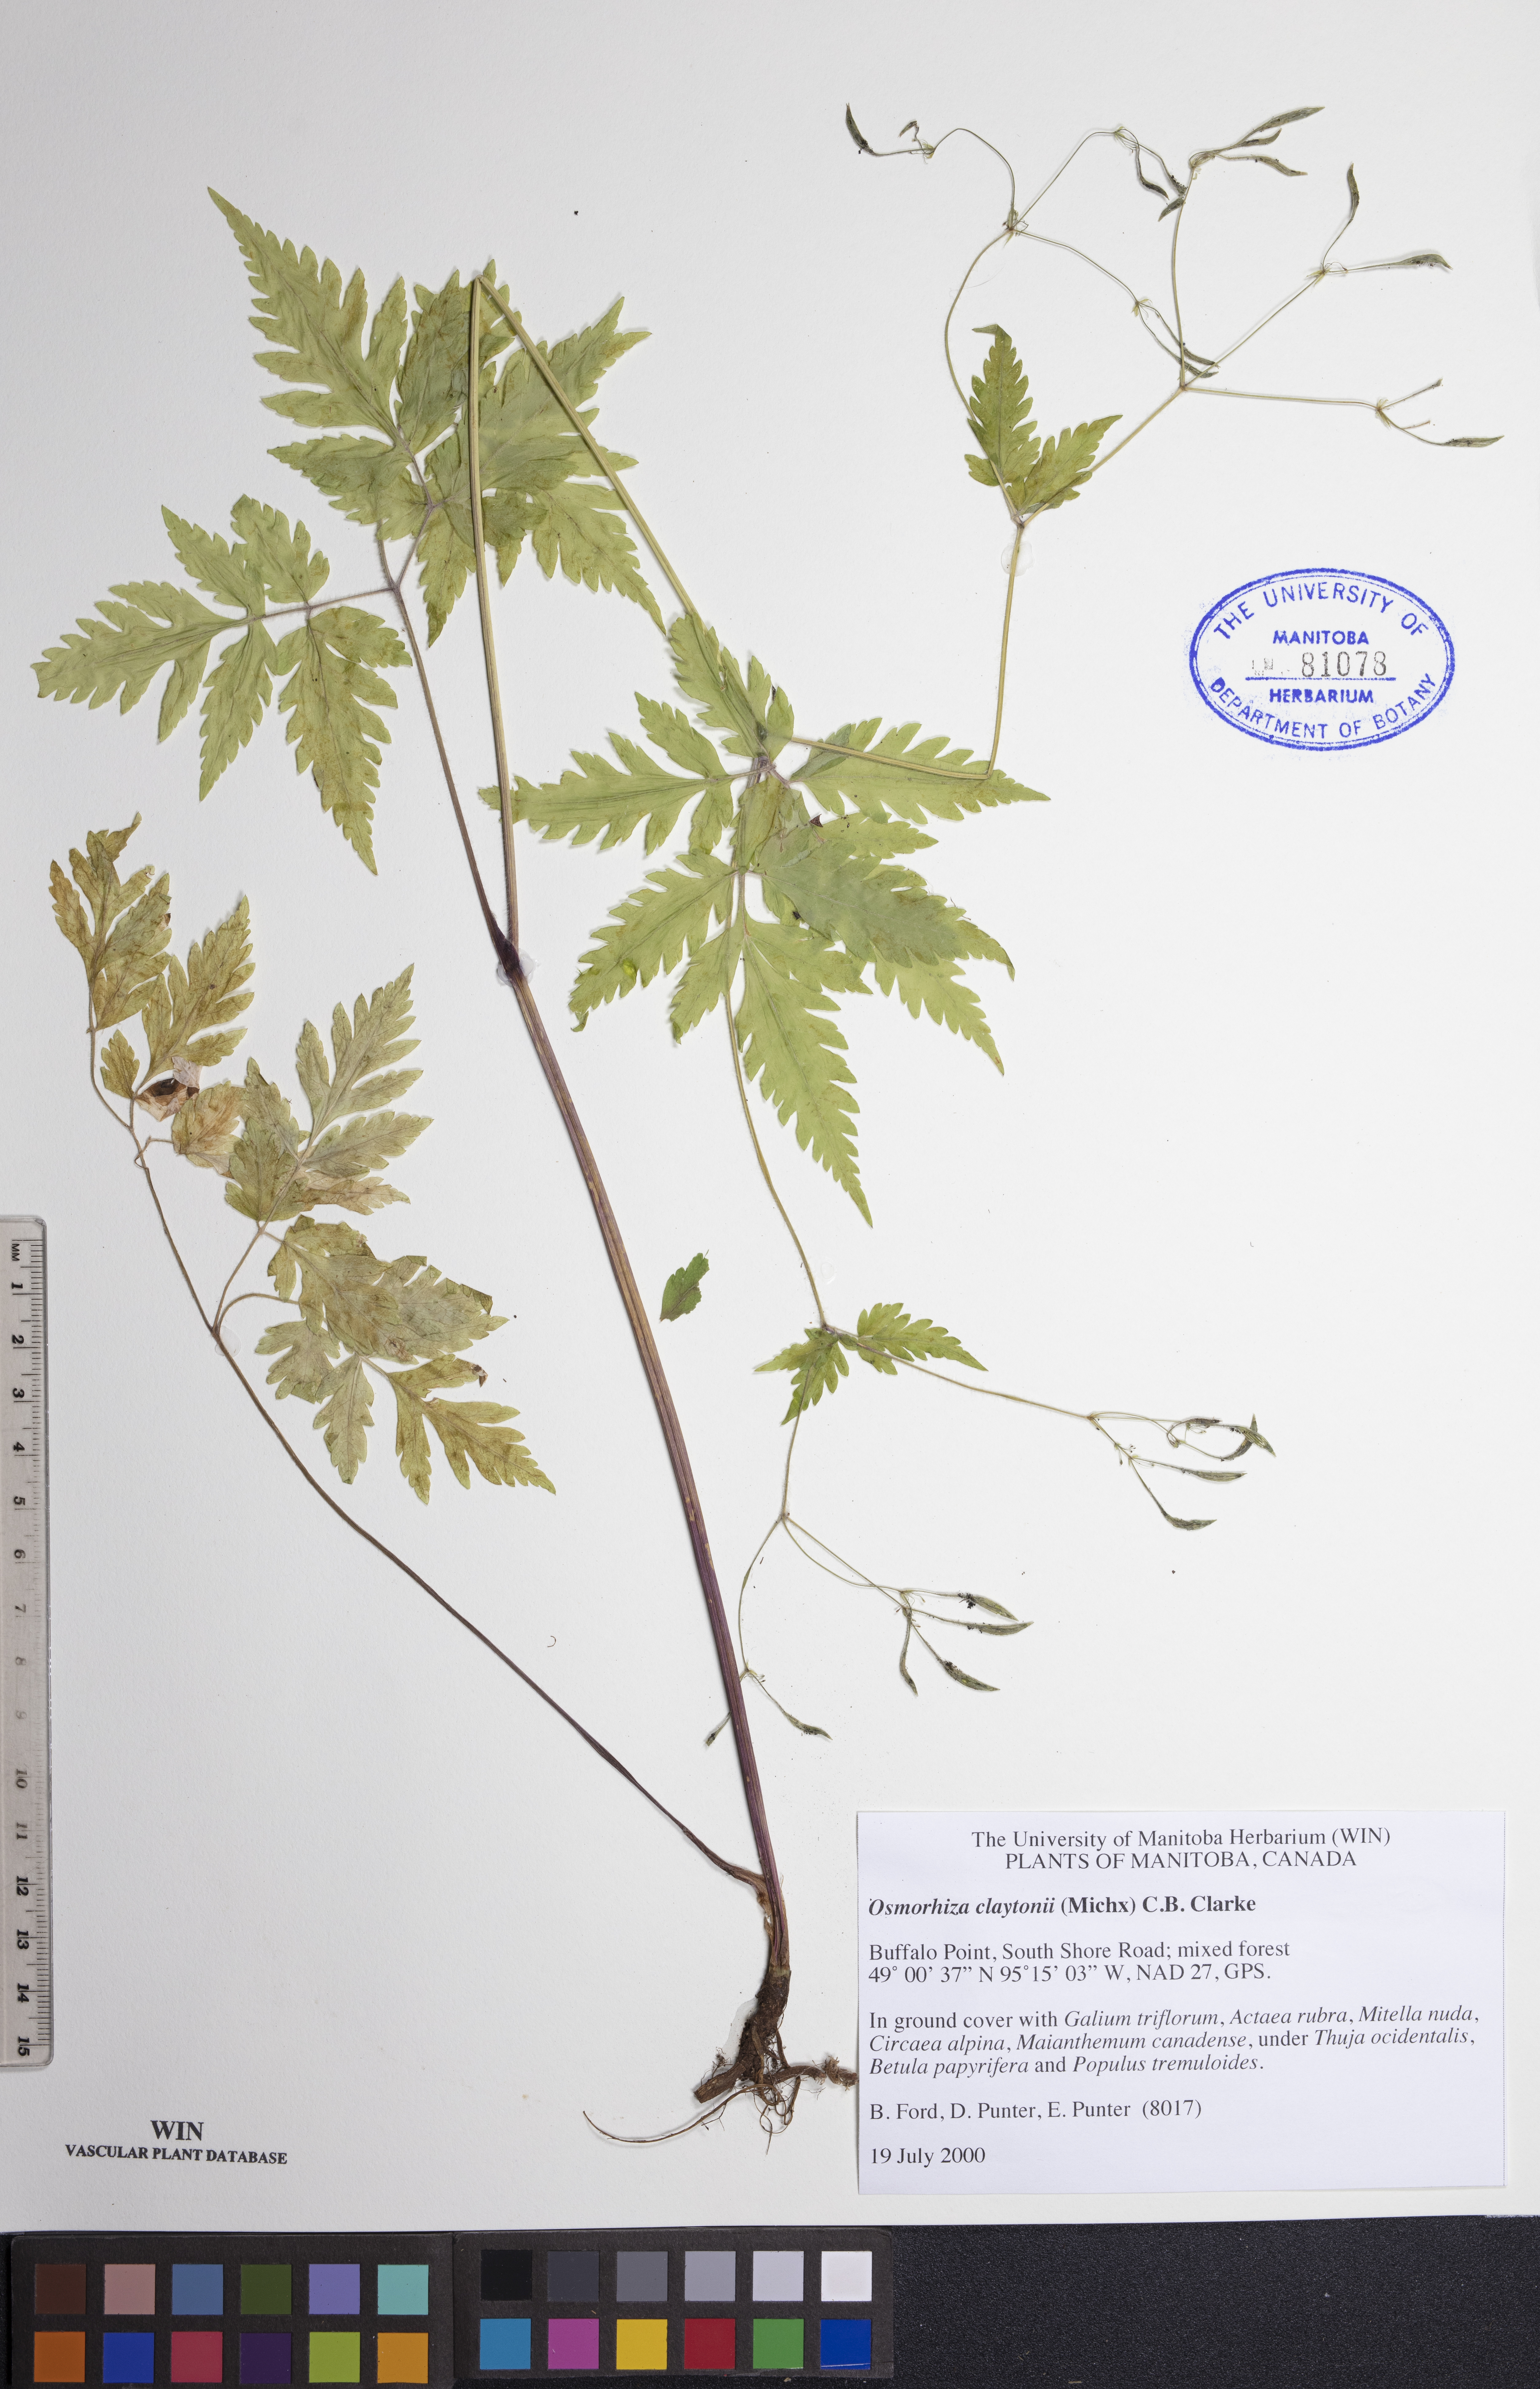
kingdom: Plantae
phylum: Tracheophyta
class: Magnoliopsida
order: Apiales
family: Apiaceae
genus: Osmorhiza
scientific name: Osmorhiza claytonii
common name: Hairy sweet cicely
